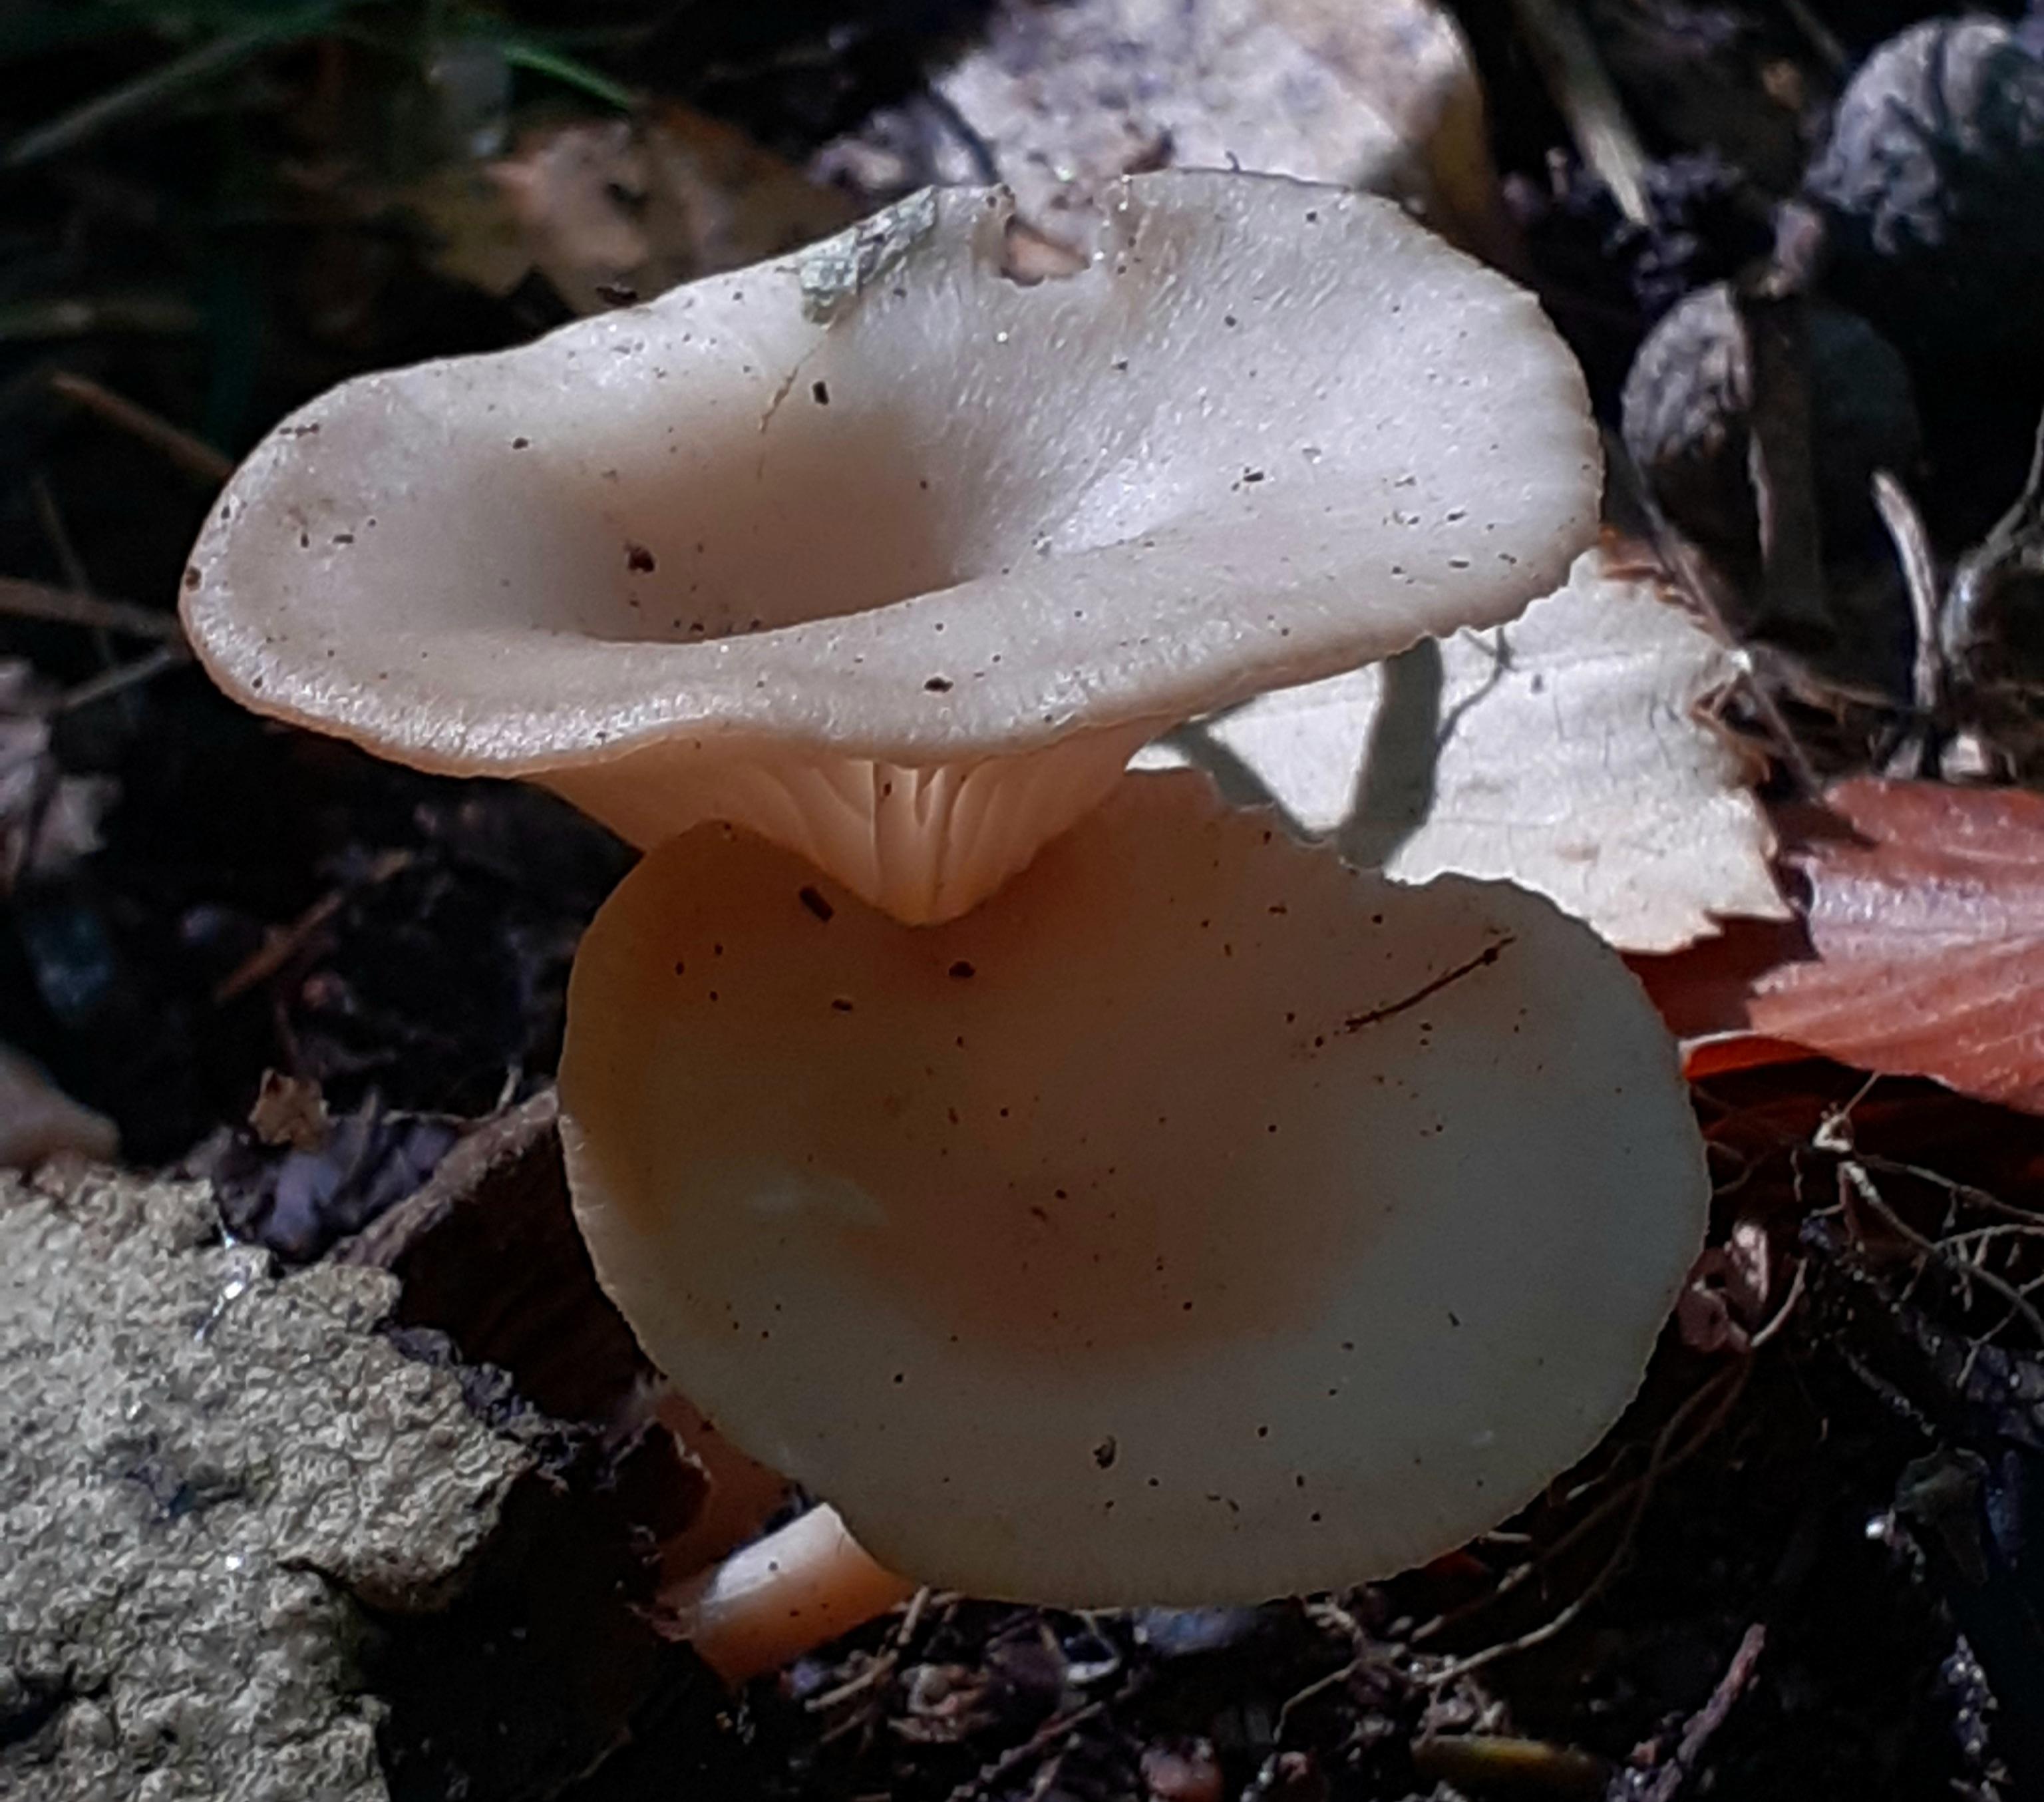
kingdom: Fungi
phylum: Basidiomycota
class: Agaricomycetes
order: Agaricales
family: Tricholomataceae
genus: Clitocybe
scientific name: Clitocybe phaeophthalma
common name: stinkende tragthat
